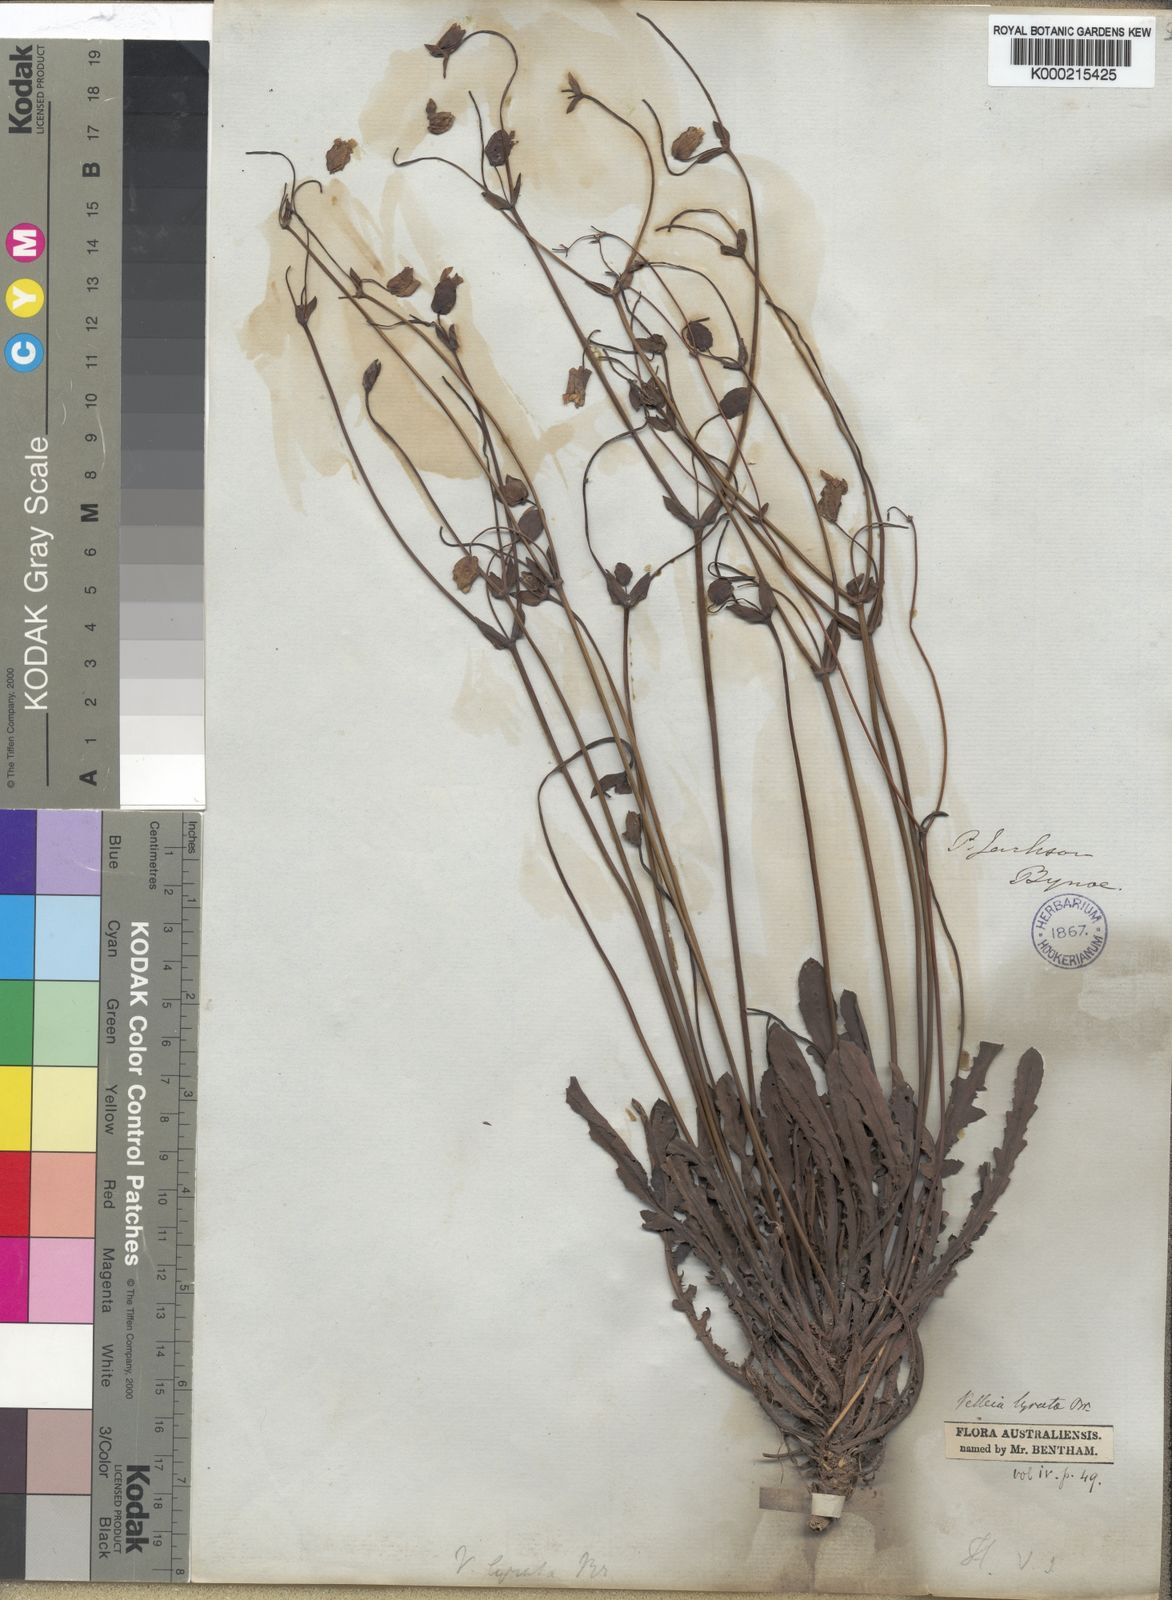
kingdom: Plantae
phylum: Tracheophyta
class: Magnoliopsida
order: Asterales
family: Goodeniaceae
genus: Goodenia
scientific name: Goodenia caroliniana
